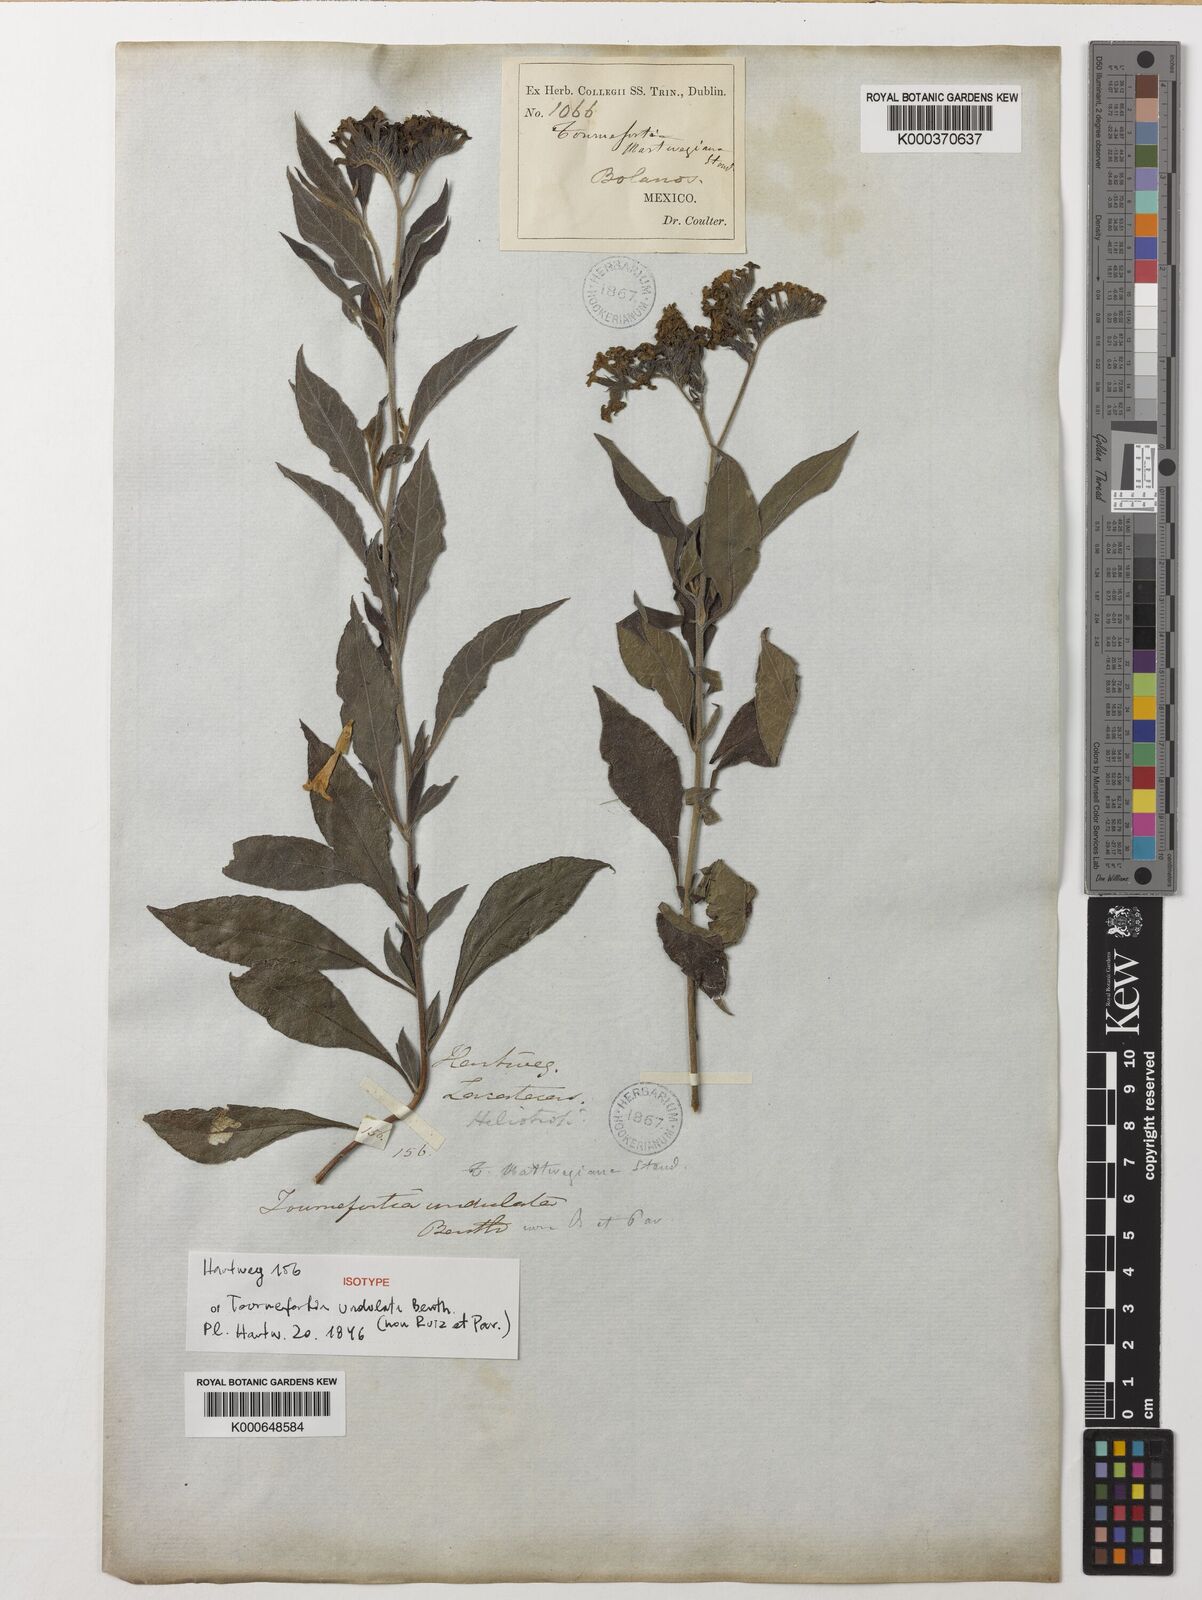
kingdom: Plantae
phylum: Tracheophyta
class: Magnoliopsida
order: Boraginales
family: Heliotropiaceae
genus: Tournefortia
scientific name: Tournefortia mutabilis
